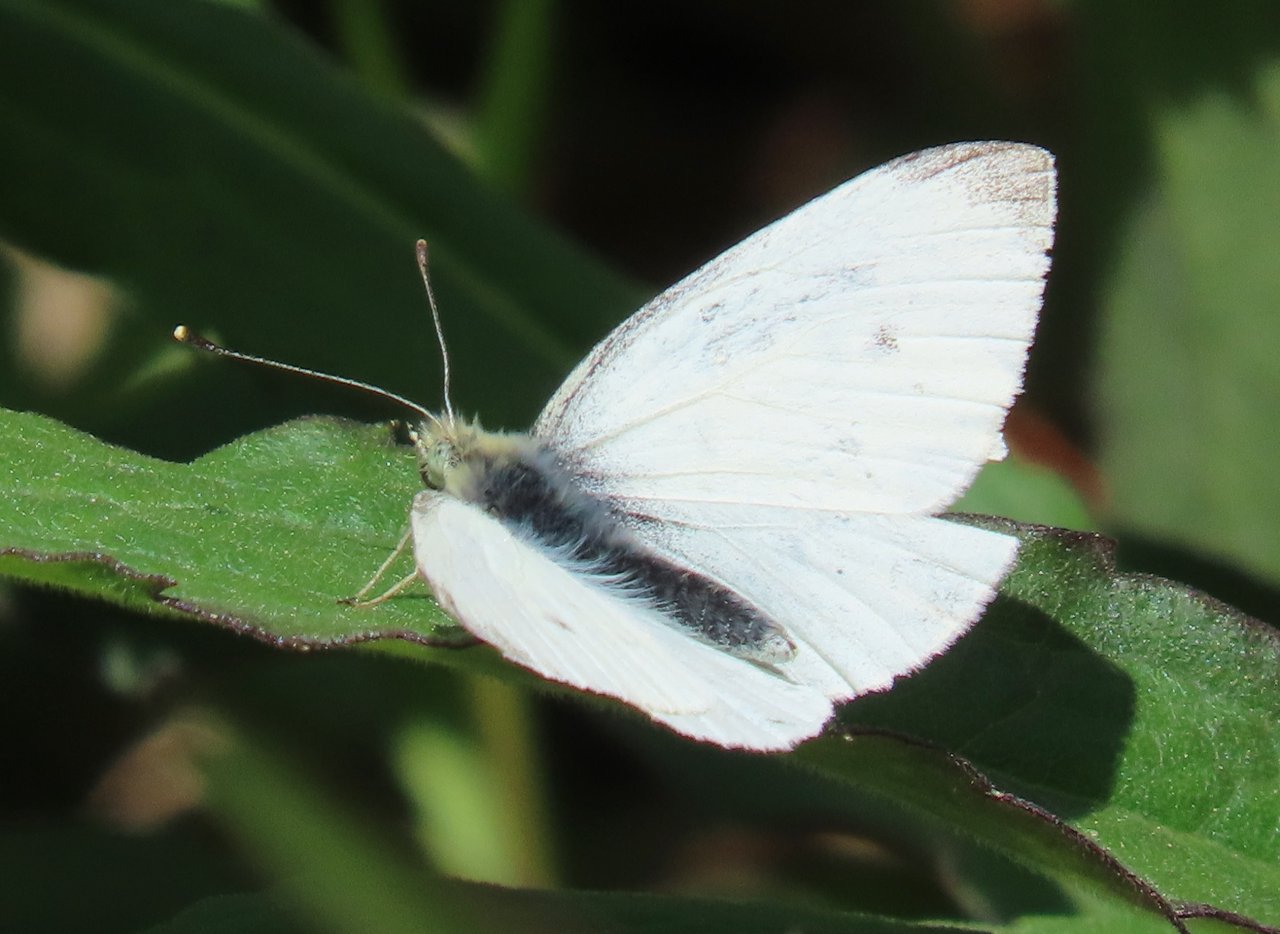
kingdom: Animalia
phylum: Arthropoda
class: Insecta
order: Lepidoptera
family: Pieridae
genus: Pieris
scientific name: Pieris rapae
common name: Cabbage White
